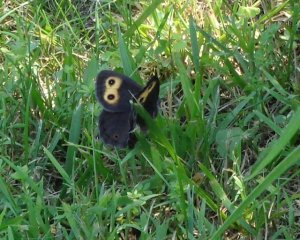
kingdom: Animalia
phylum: Arthropoda
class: Insecta
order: Lepidoptera
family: Nymphalidae
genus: Cercyonis
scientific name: Cercyonis pegala
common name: Common Wood-Nymph
